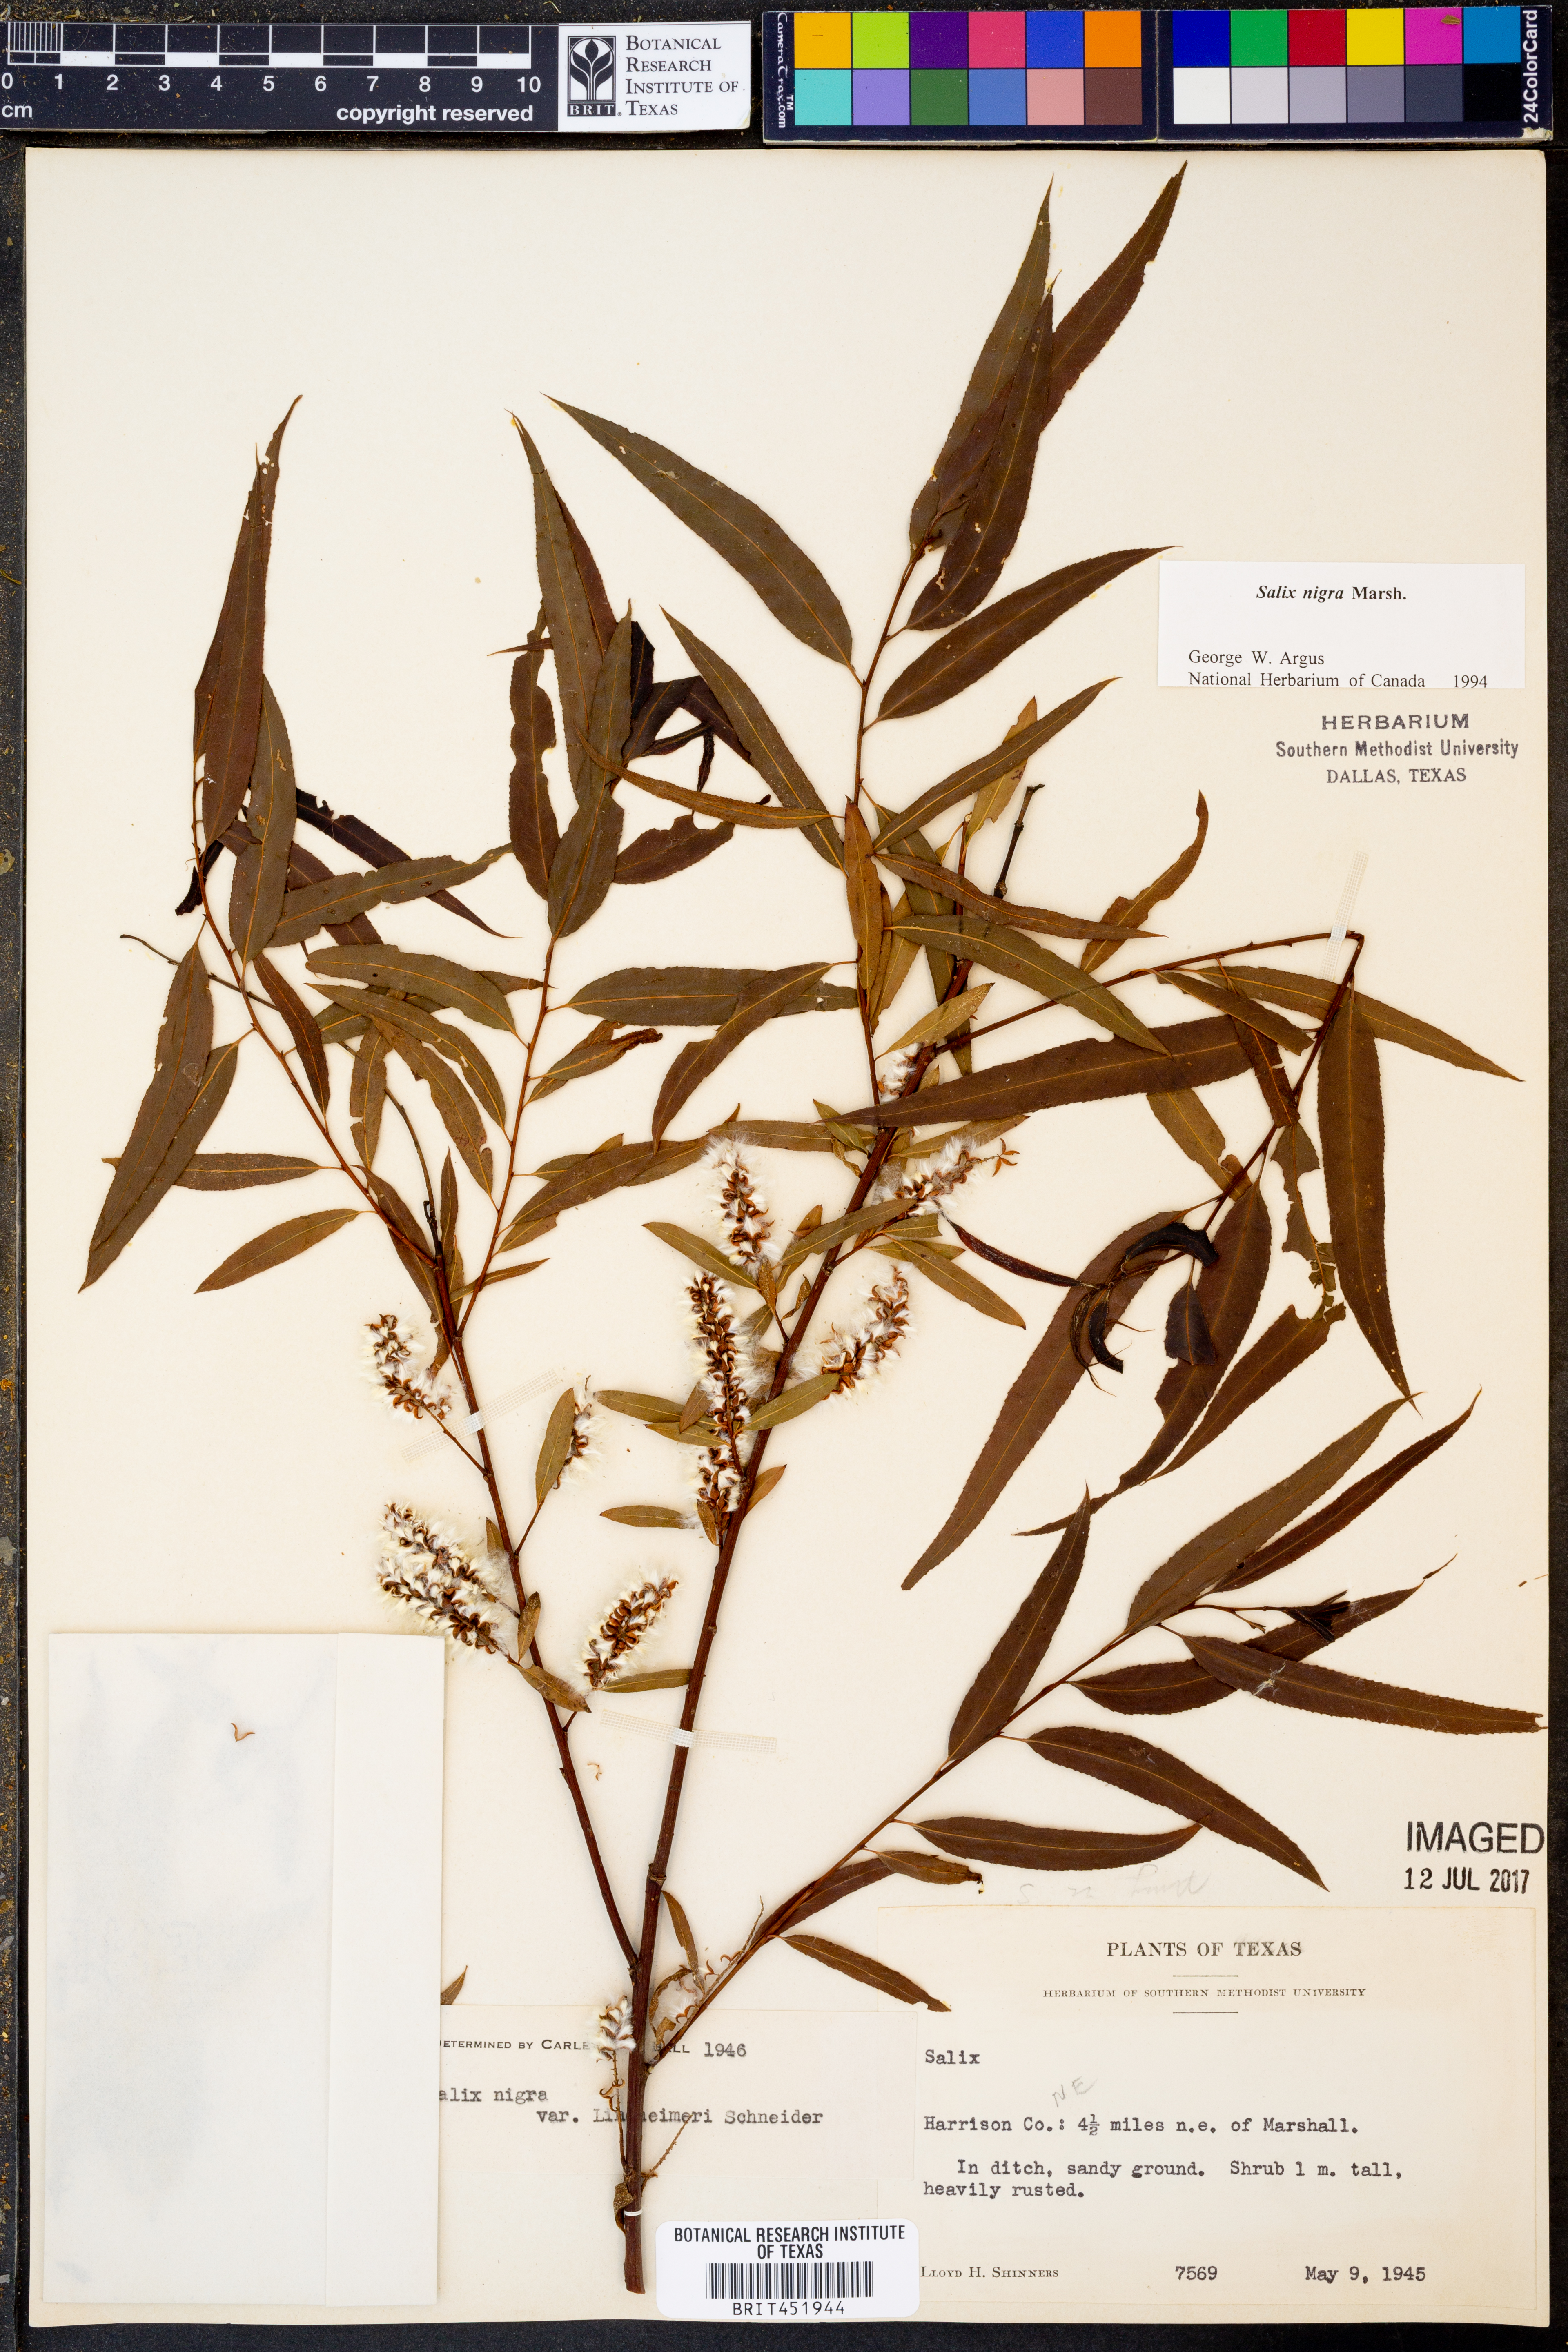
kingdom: Plantae
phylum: Tracheophyta
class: Magnoliopsida
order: Malpighiales
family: Salicaceae
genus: Salix
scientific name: Salix
